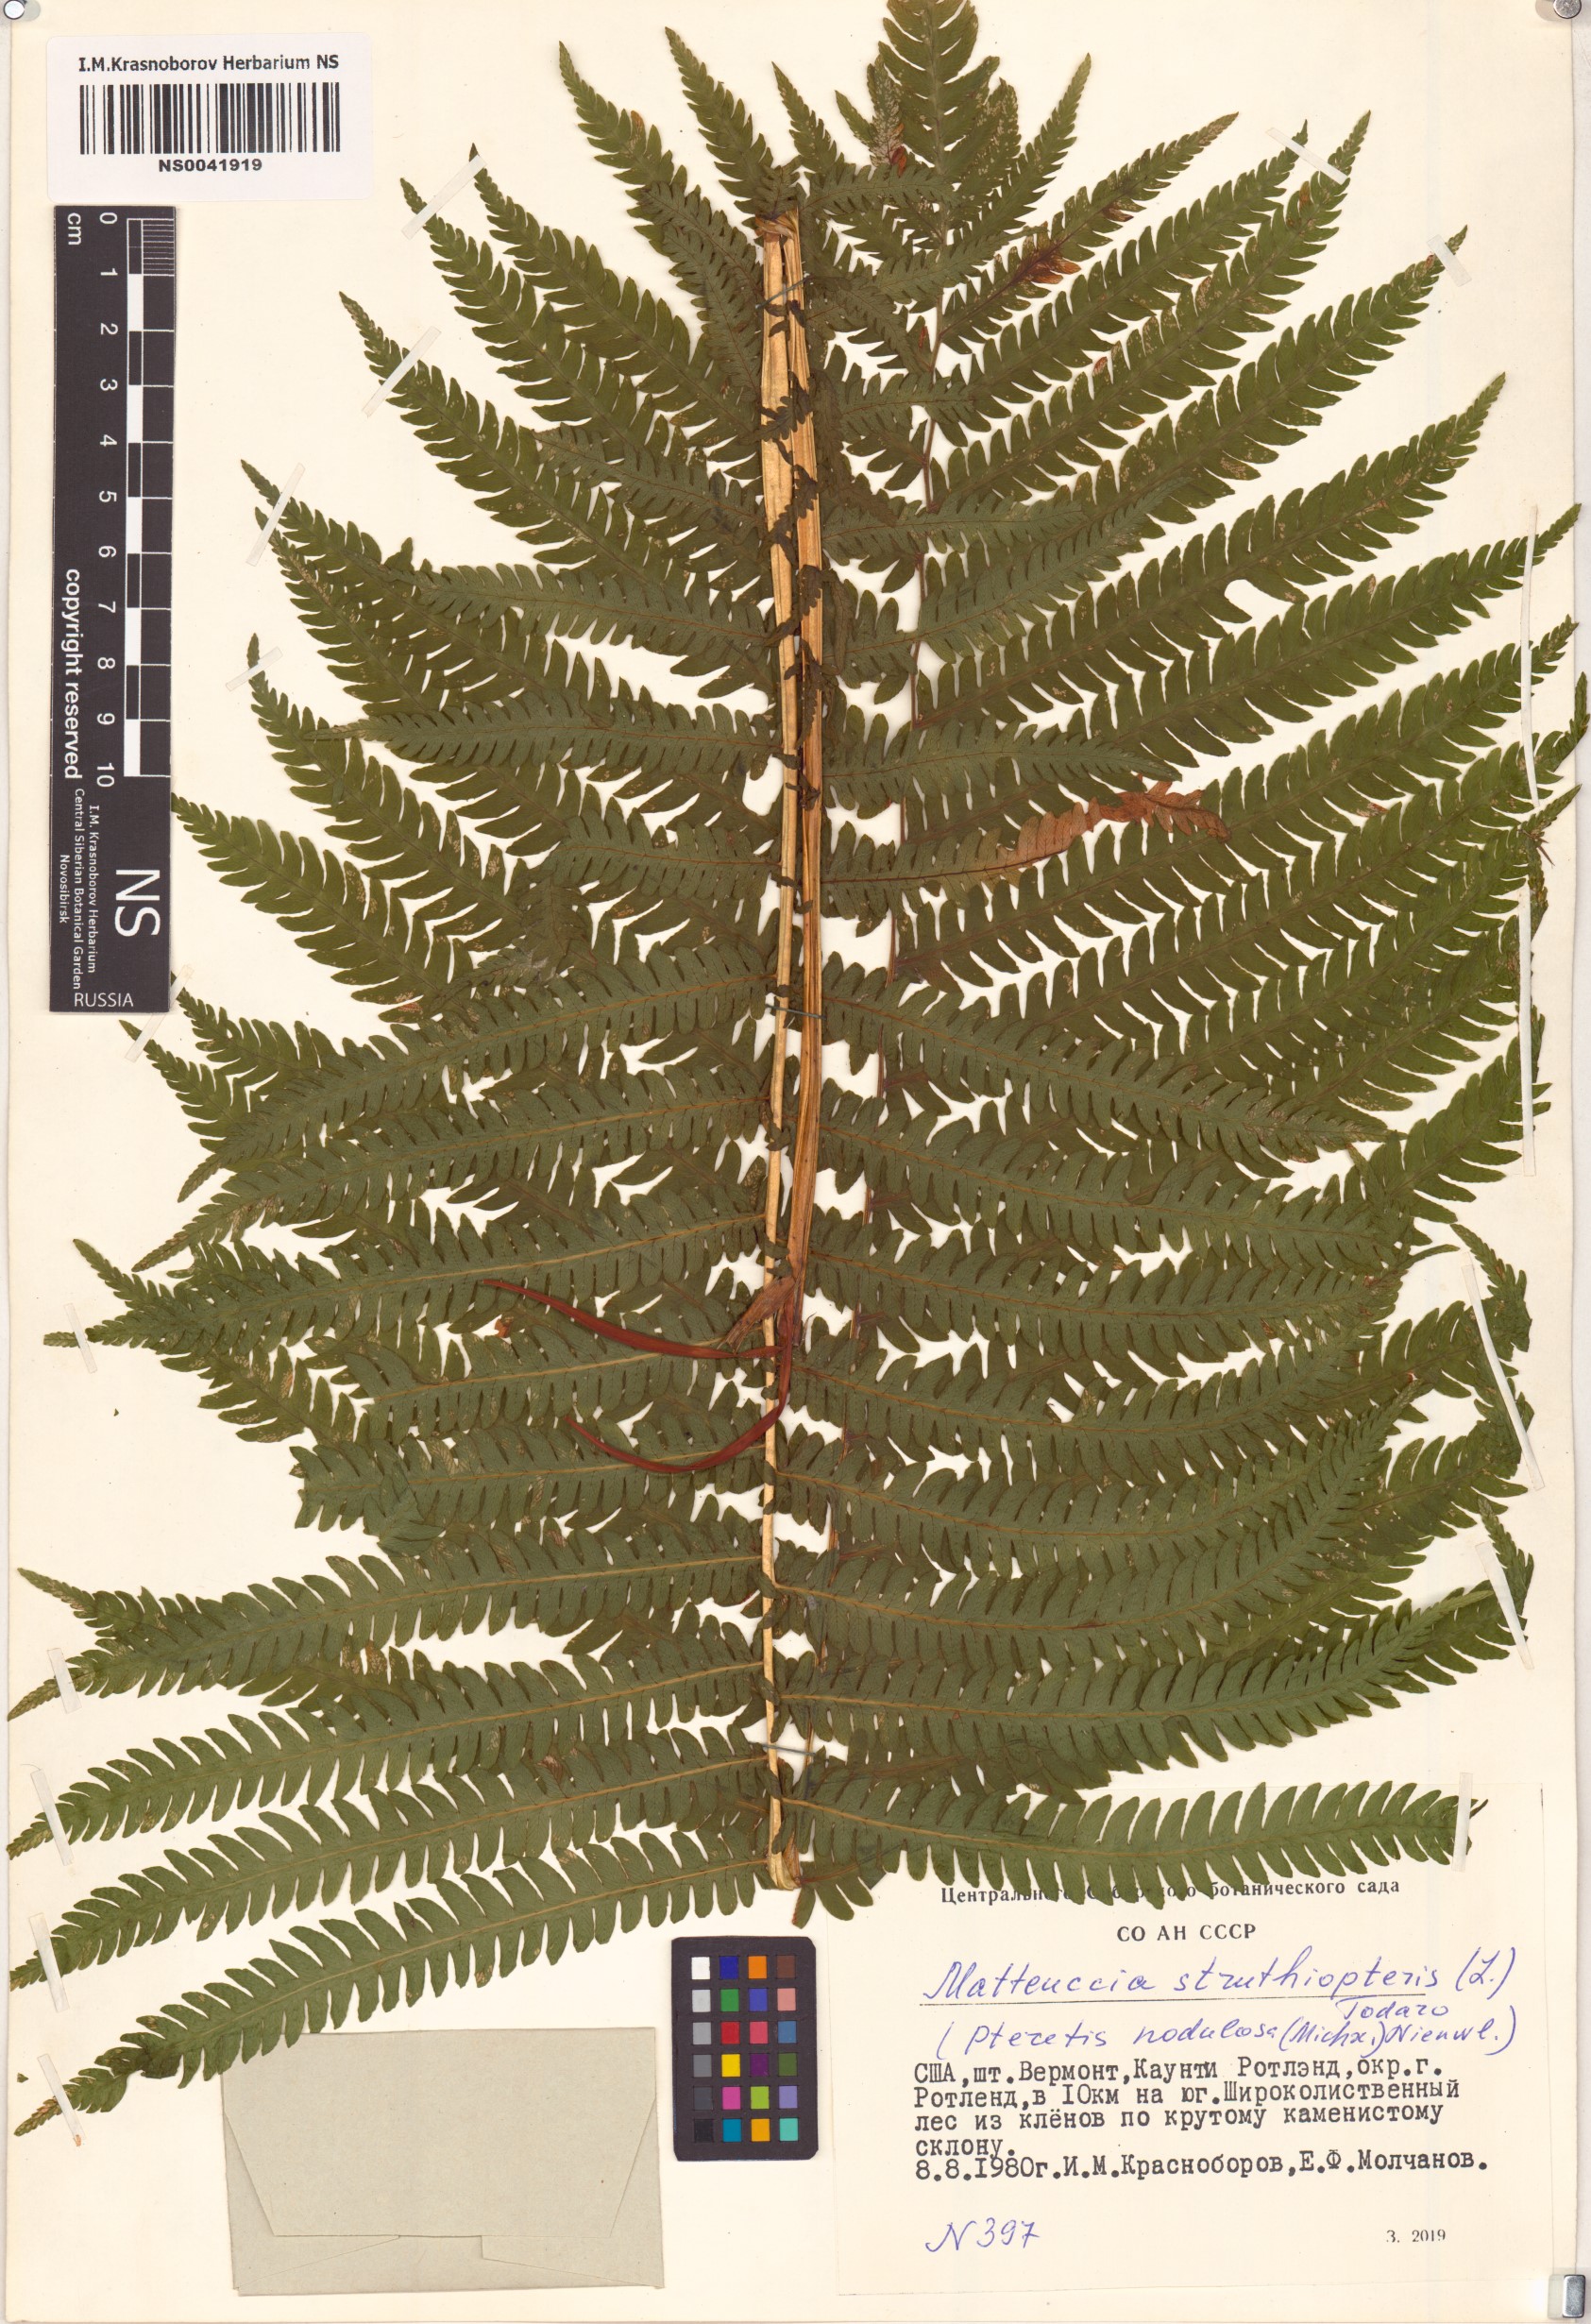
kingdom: Plantae
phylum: Tracheophyta
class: Polypodiopsida
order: Polypodiales
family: Onocleaceae
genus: Matteuccia
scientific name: Matteuccia struthiopteris
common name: Ostrich fern
